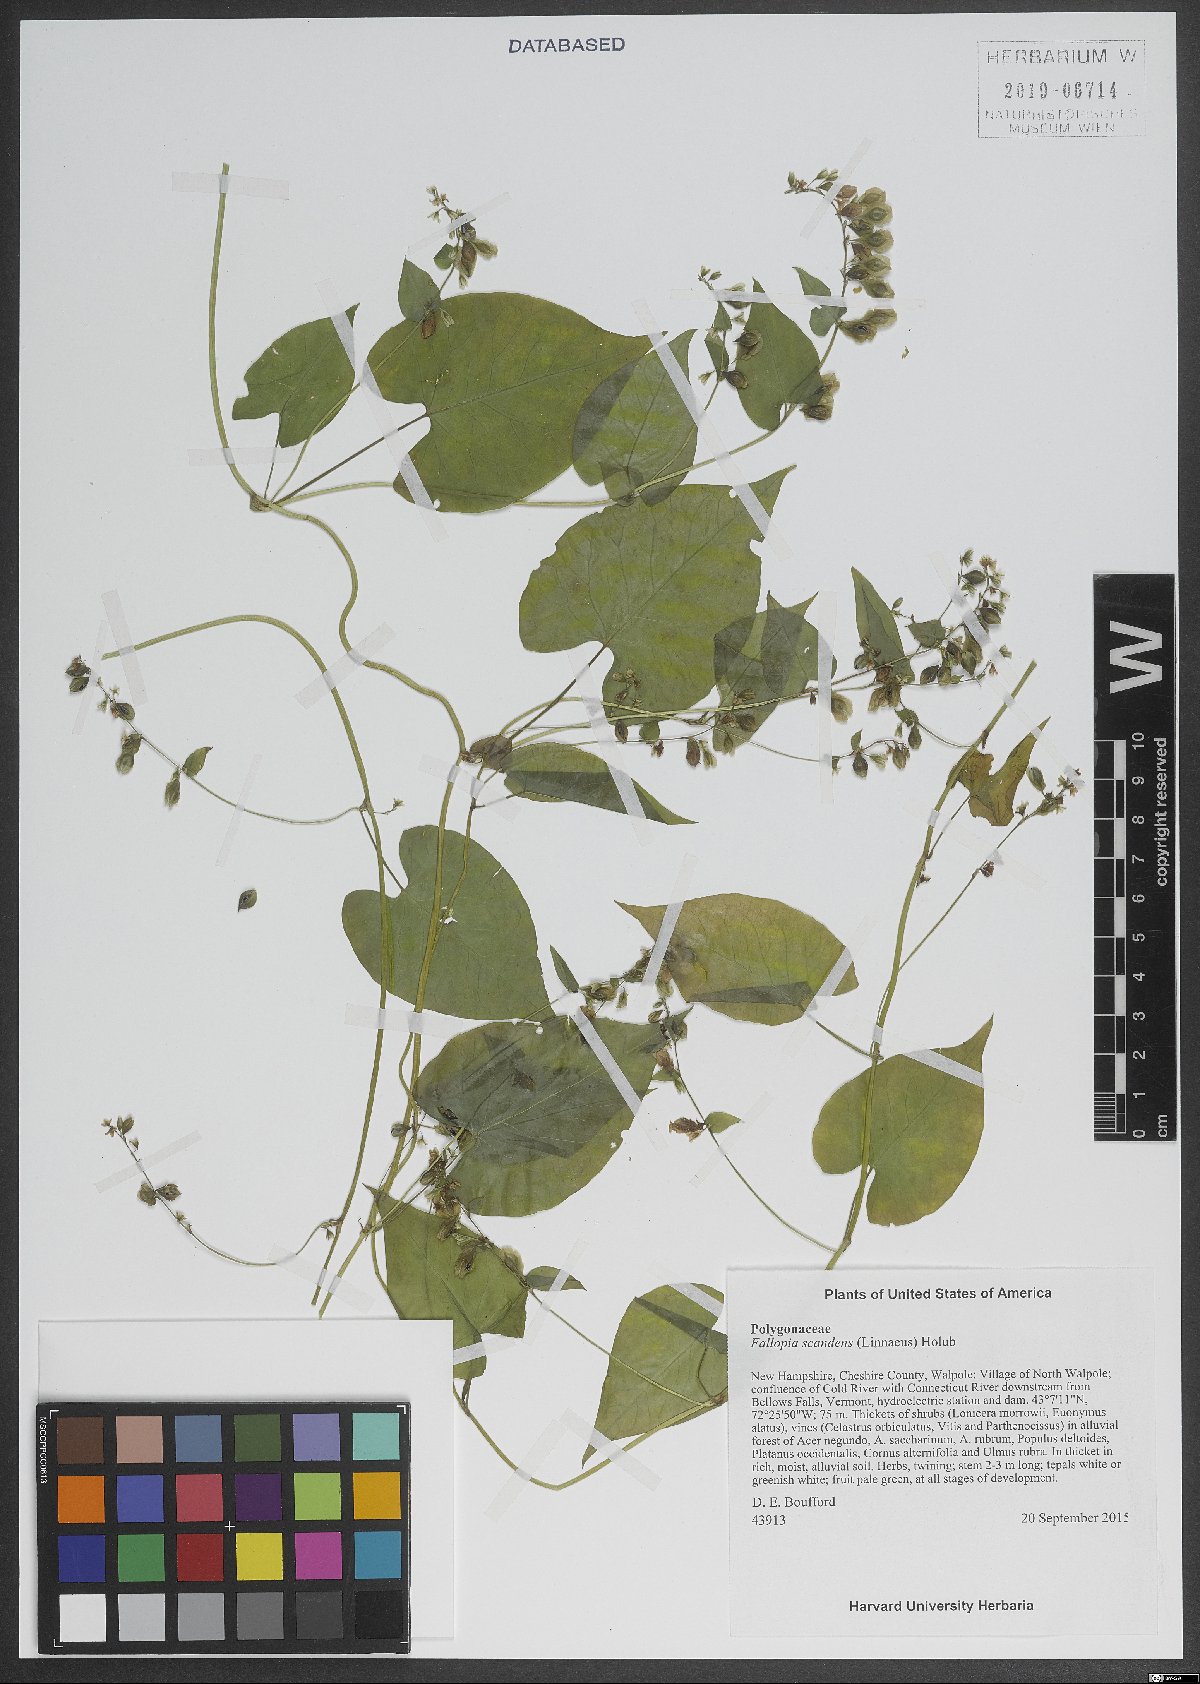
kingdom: Plantae
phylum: Tracheophyta
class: Magnoliopsida
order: Caryophyllales
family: Polygonaceae
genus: Fallopia
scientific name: Fallopia scandens
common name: Climbing false buckwheat
